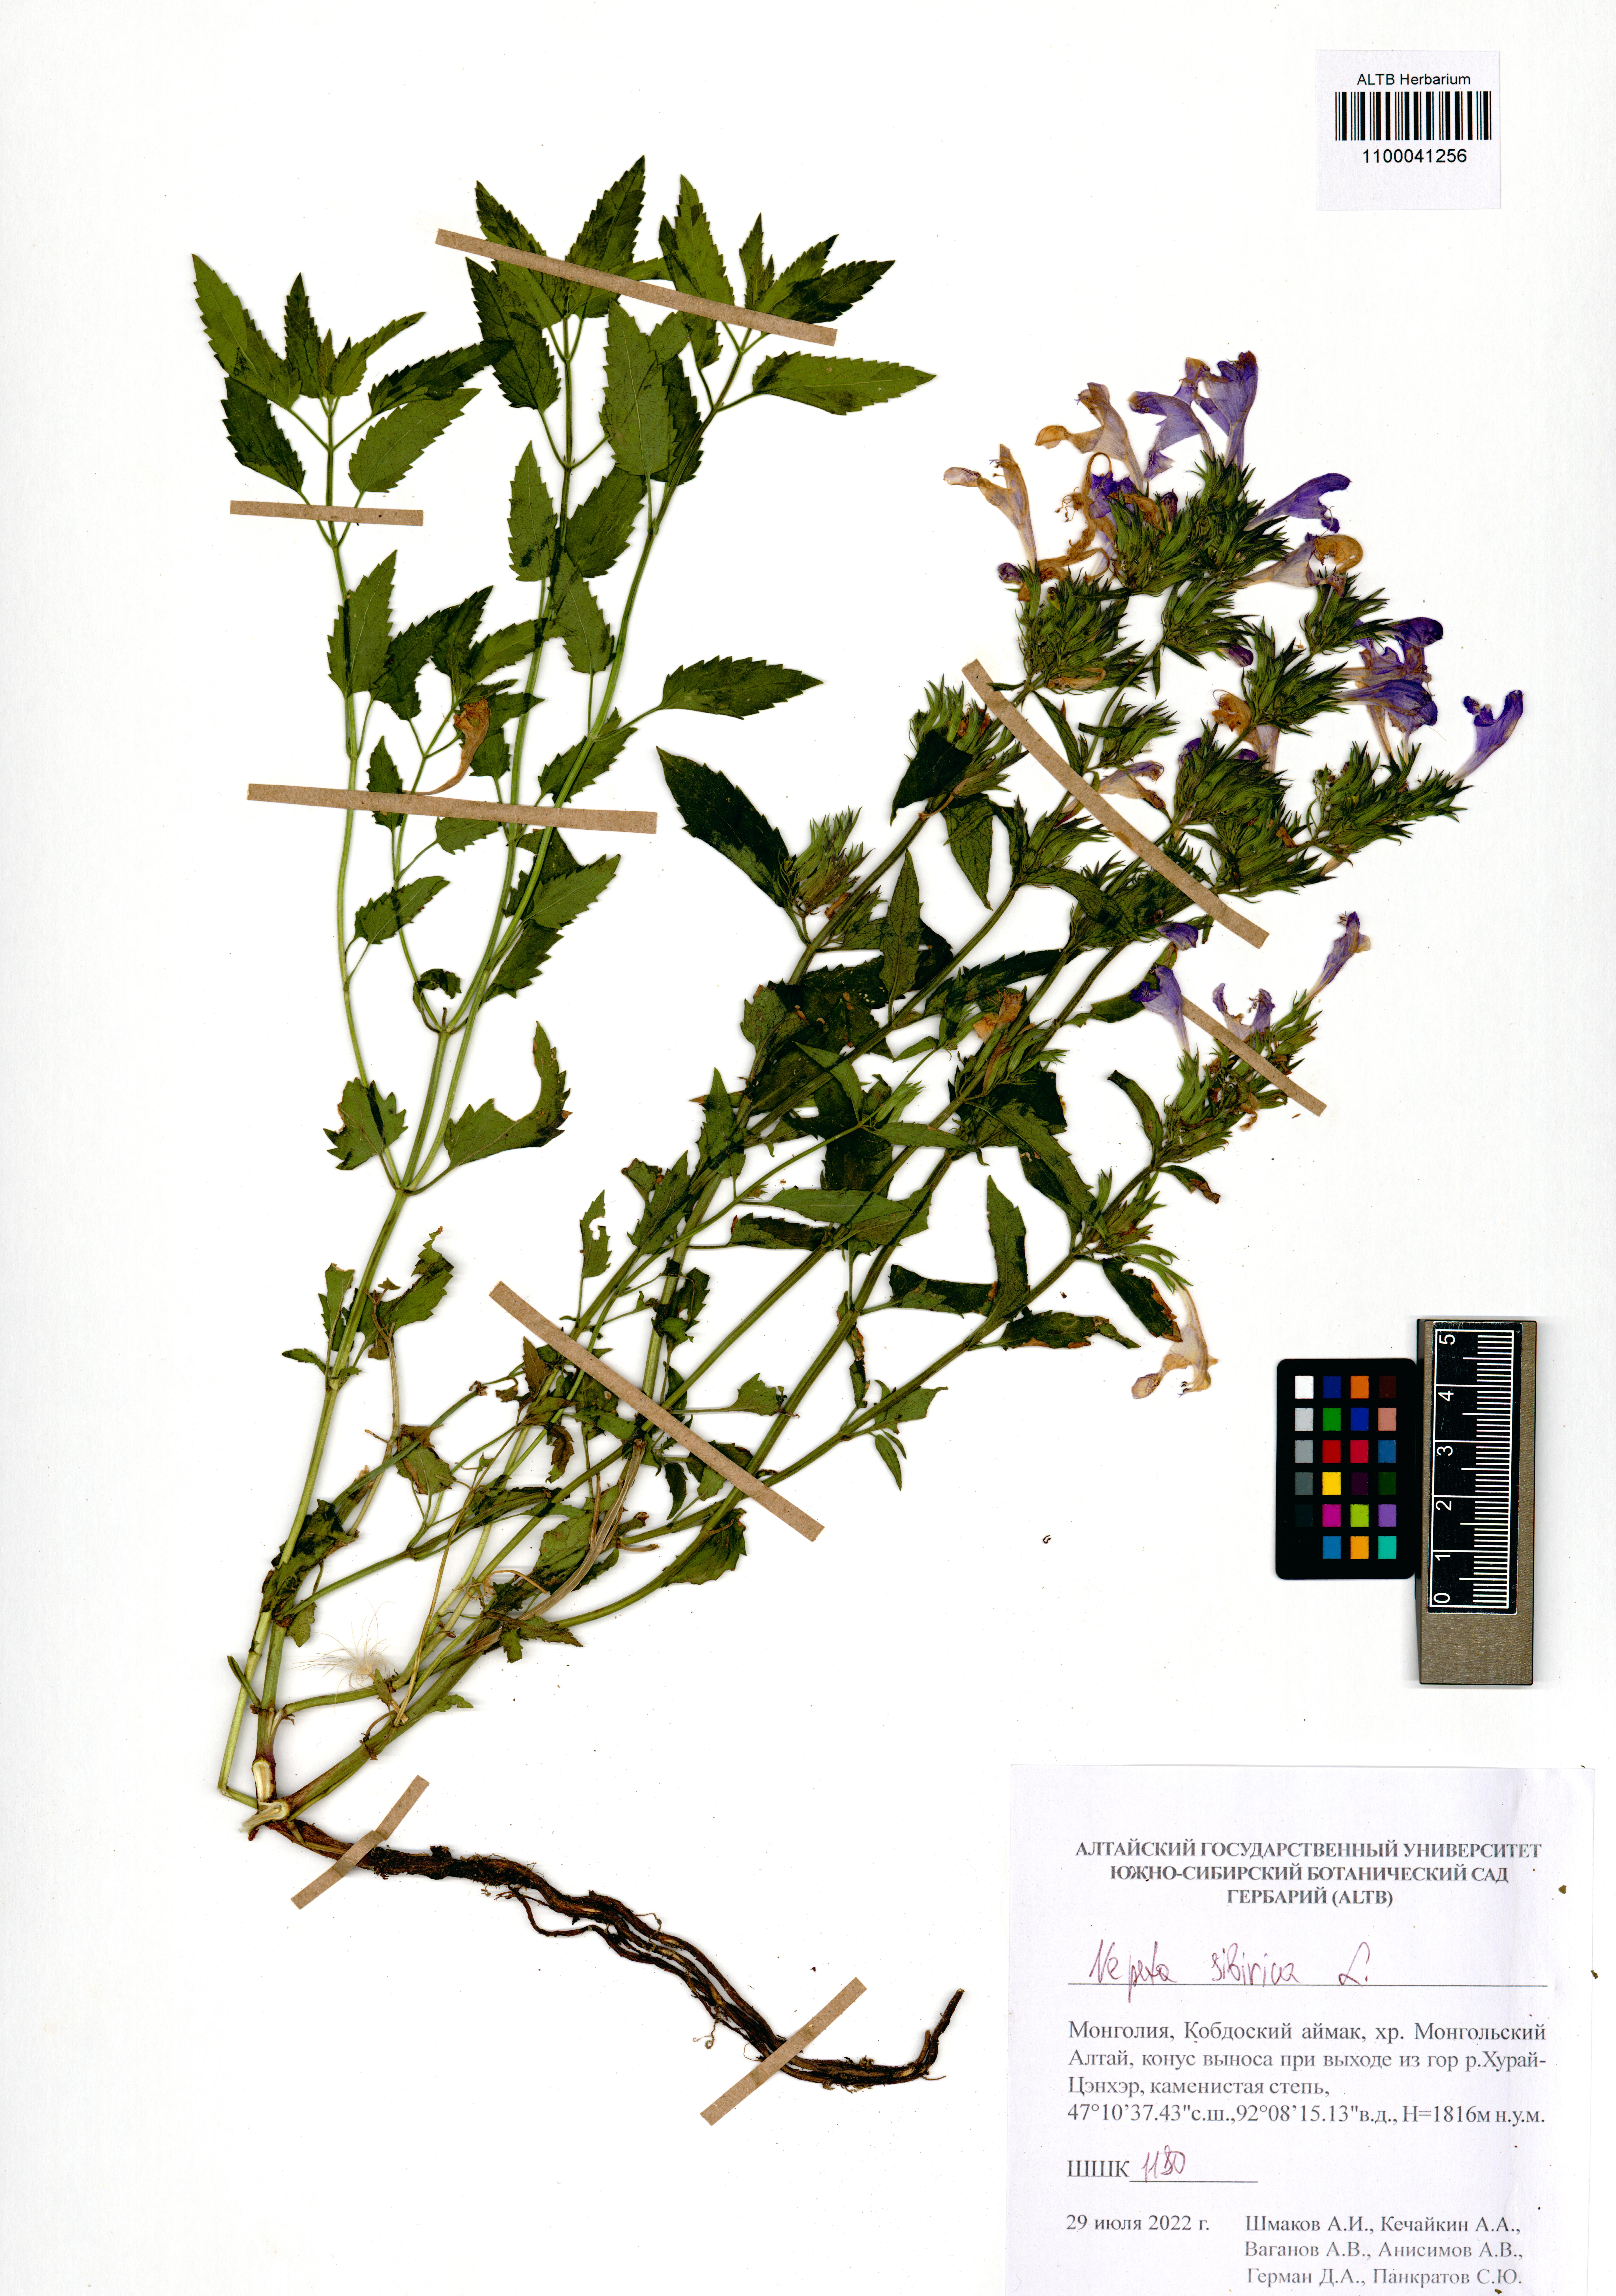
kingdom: Plantae
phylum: Tracheophyta
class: Magnoliopsida
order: Lamiales
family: Lamiaceae
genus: Nepeta
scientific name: Nepeta sibirica
